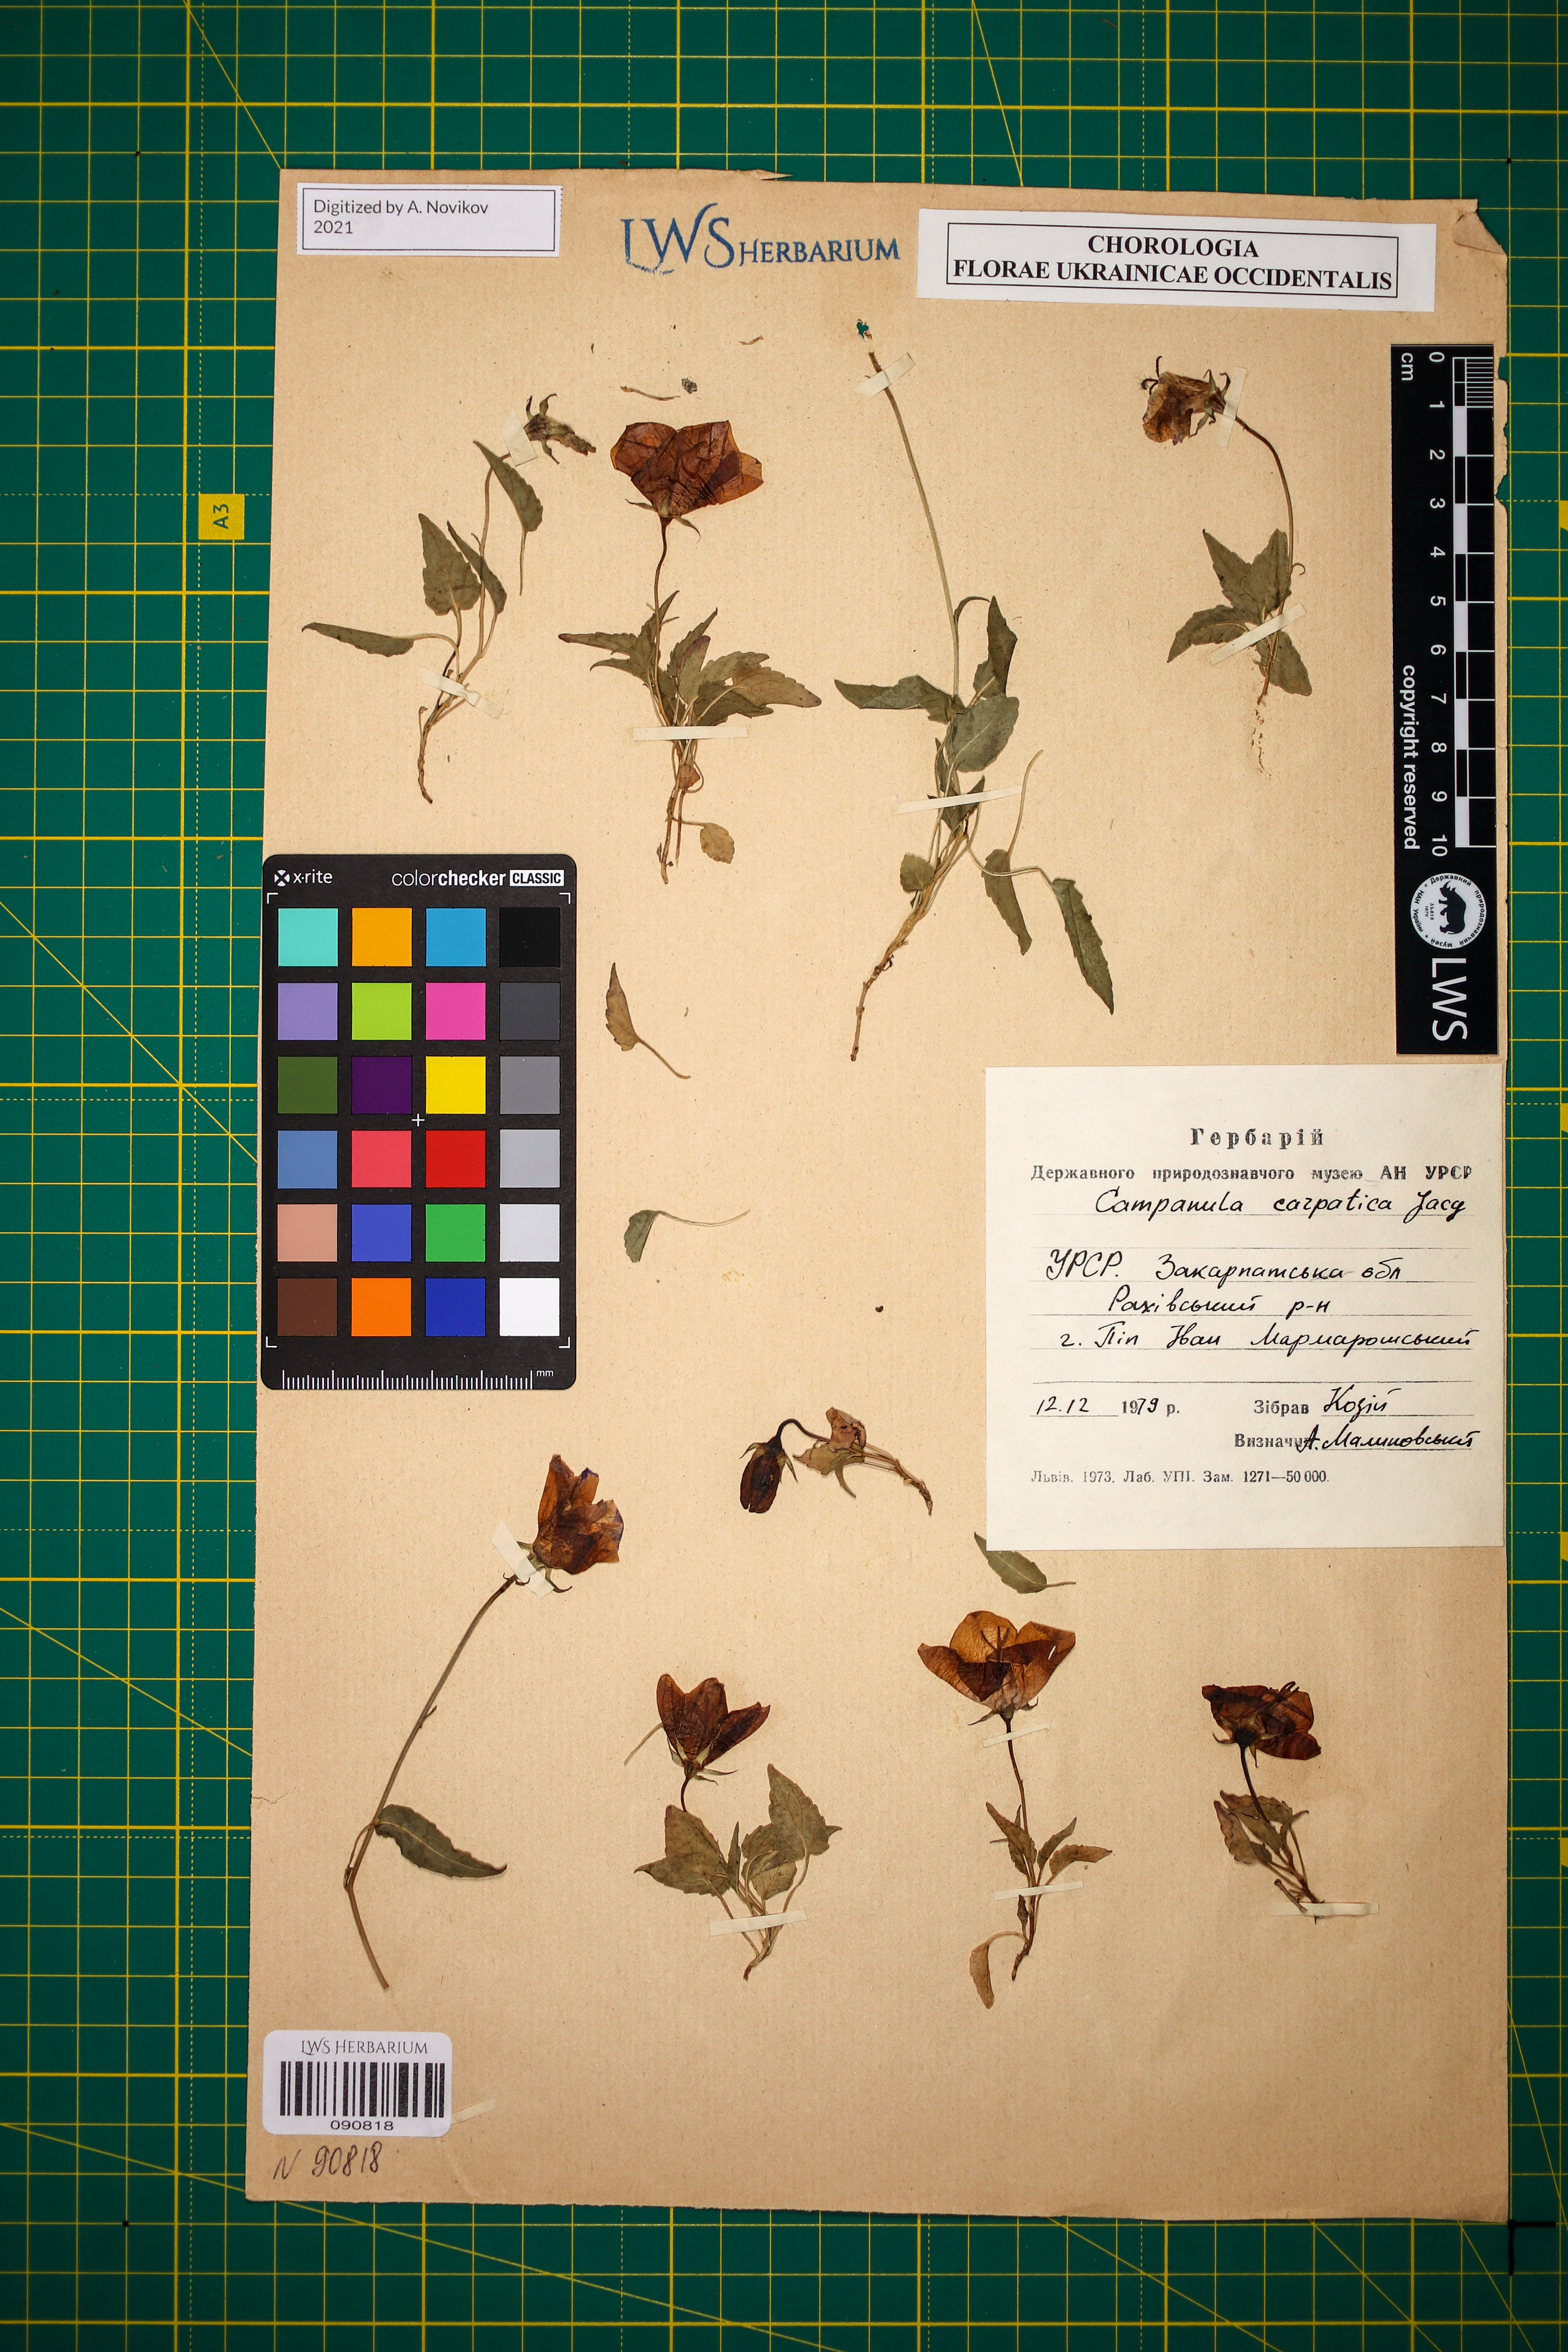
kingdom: Plantae
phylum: Tracheophyta
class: Magnoliopsida
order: Asterales
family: Campanulaceae
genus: Campanula
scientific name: Campanula carpatica
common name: Tussock bellflower
